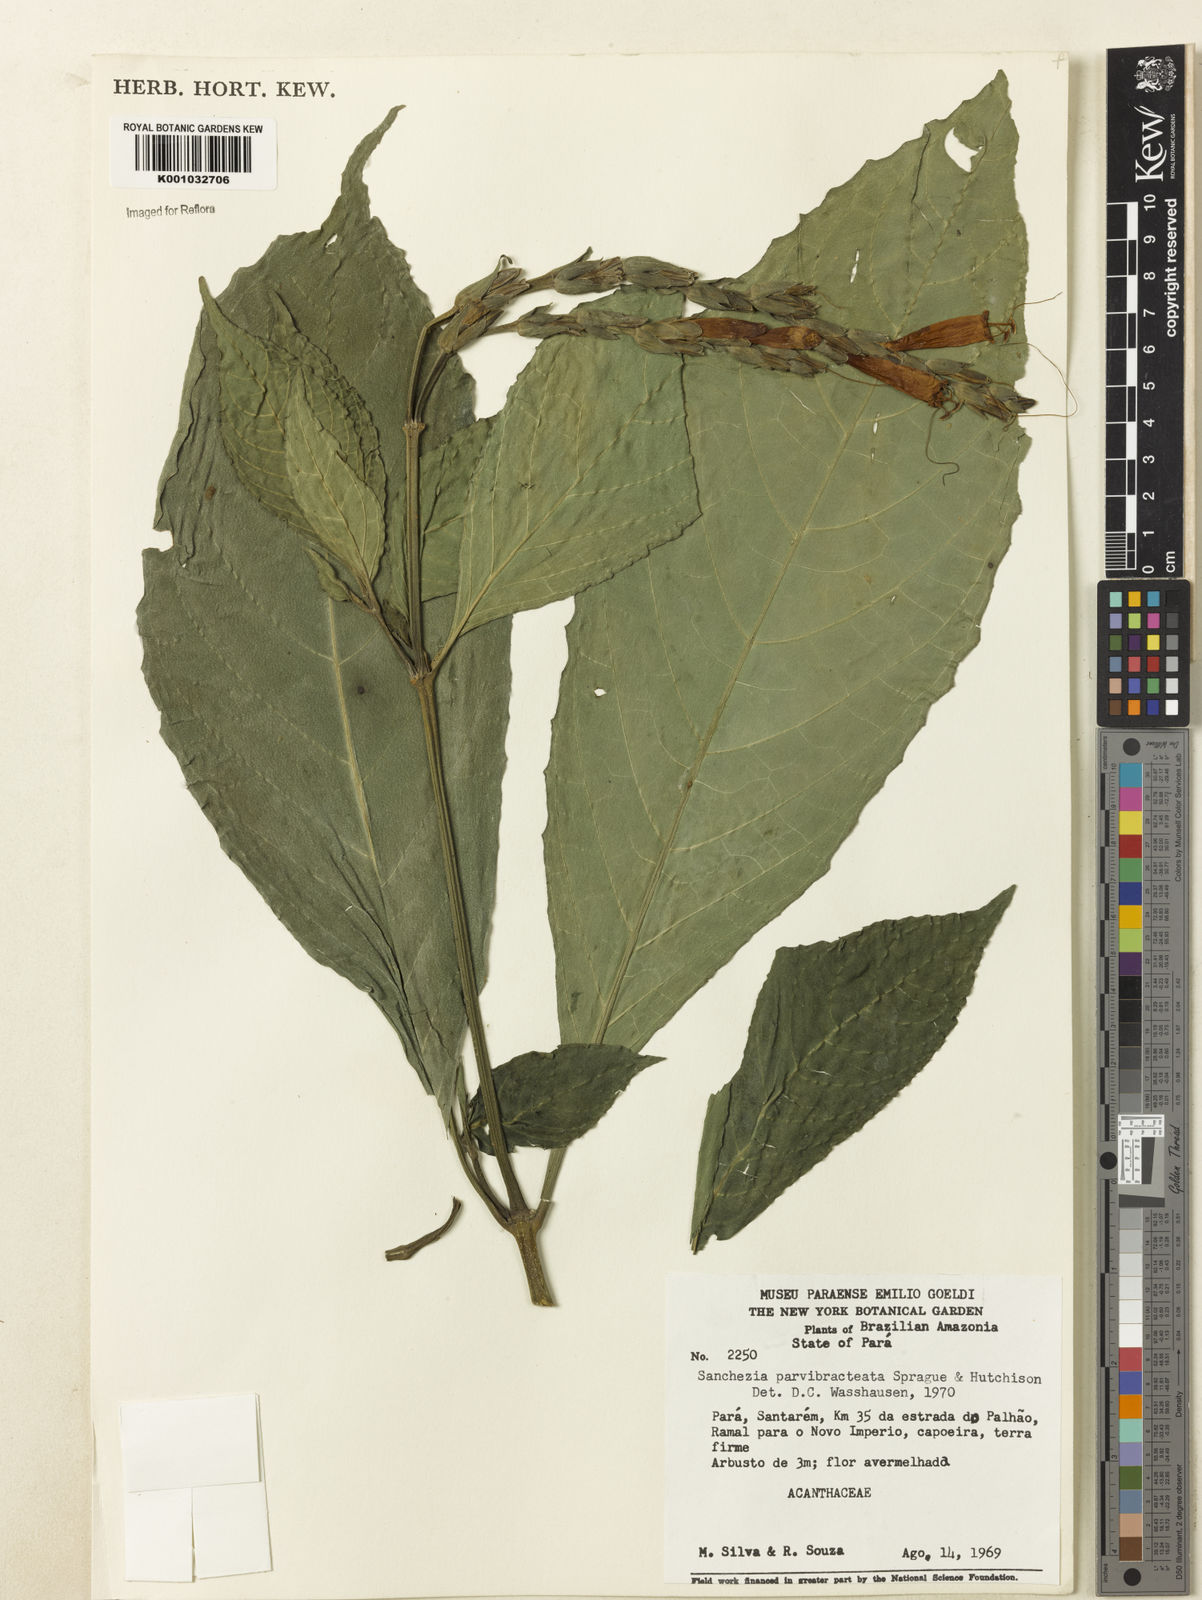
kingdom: Plantae
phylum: Tracheophyta
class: Magnoliopsida
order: Lamiales
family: Acanthaceae
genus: Sanchezia
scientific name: Sanchezia parvibracteata
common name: Sanchezia
